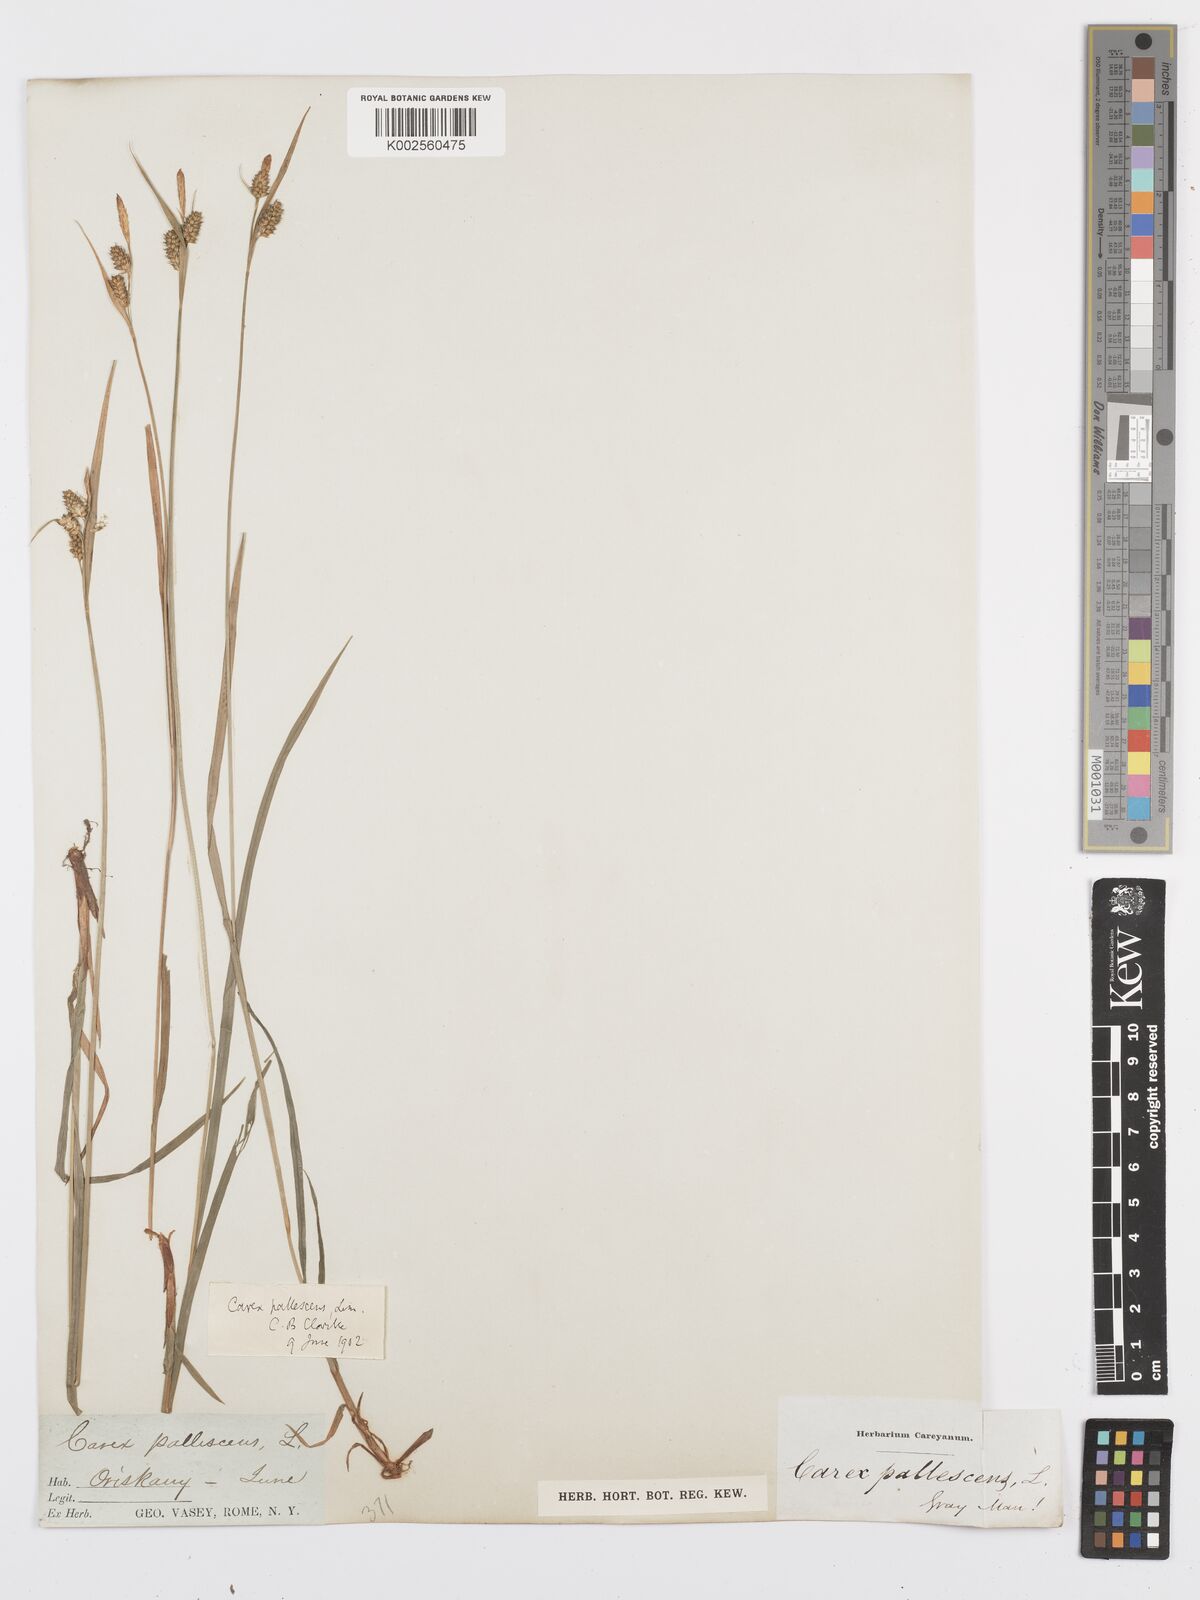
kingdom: Plantae
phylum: Tracheophyta
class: Liliopsida
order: Poales
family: Cyperaceae
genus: Carex
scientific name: Carex pallescens
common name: Pale sedge
